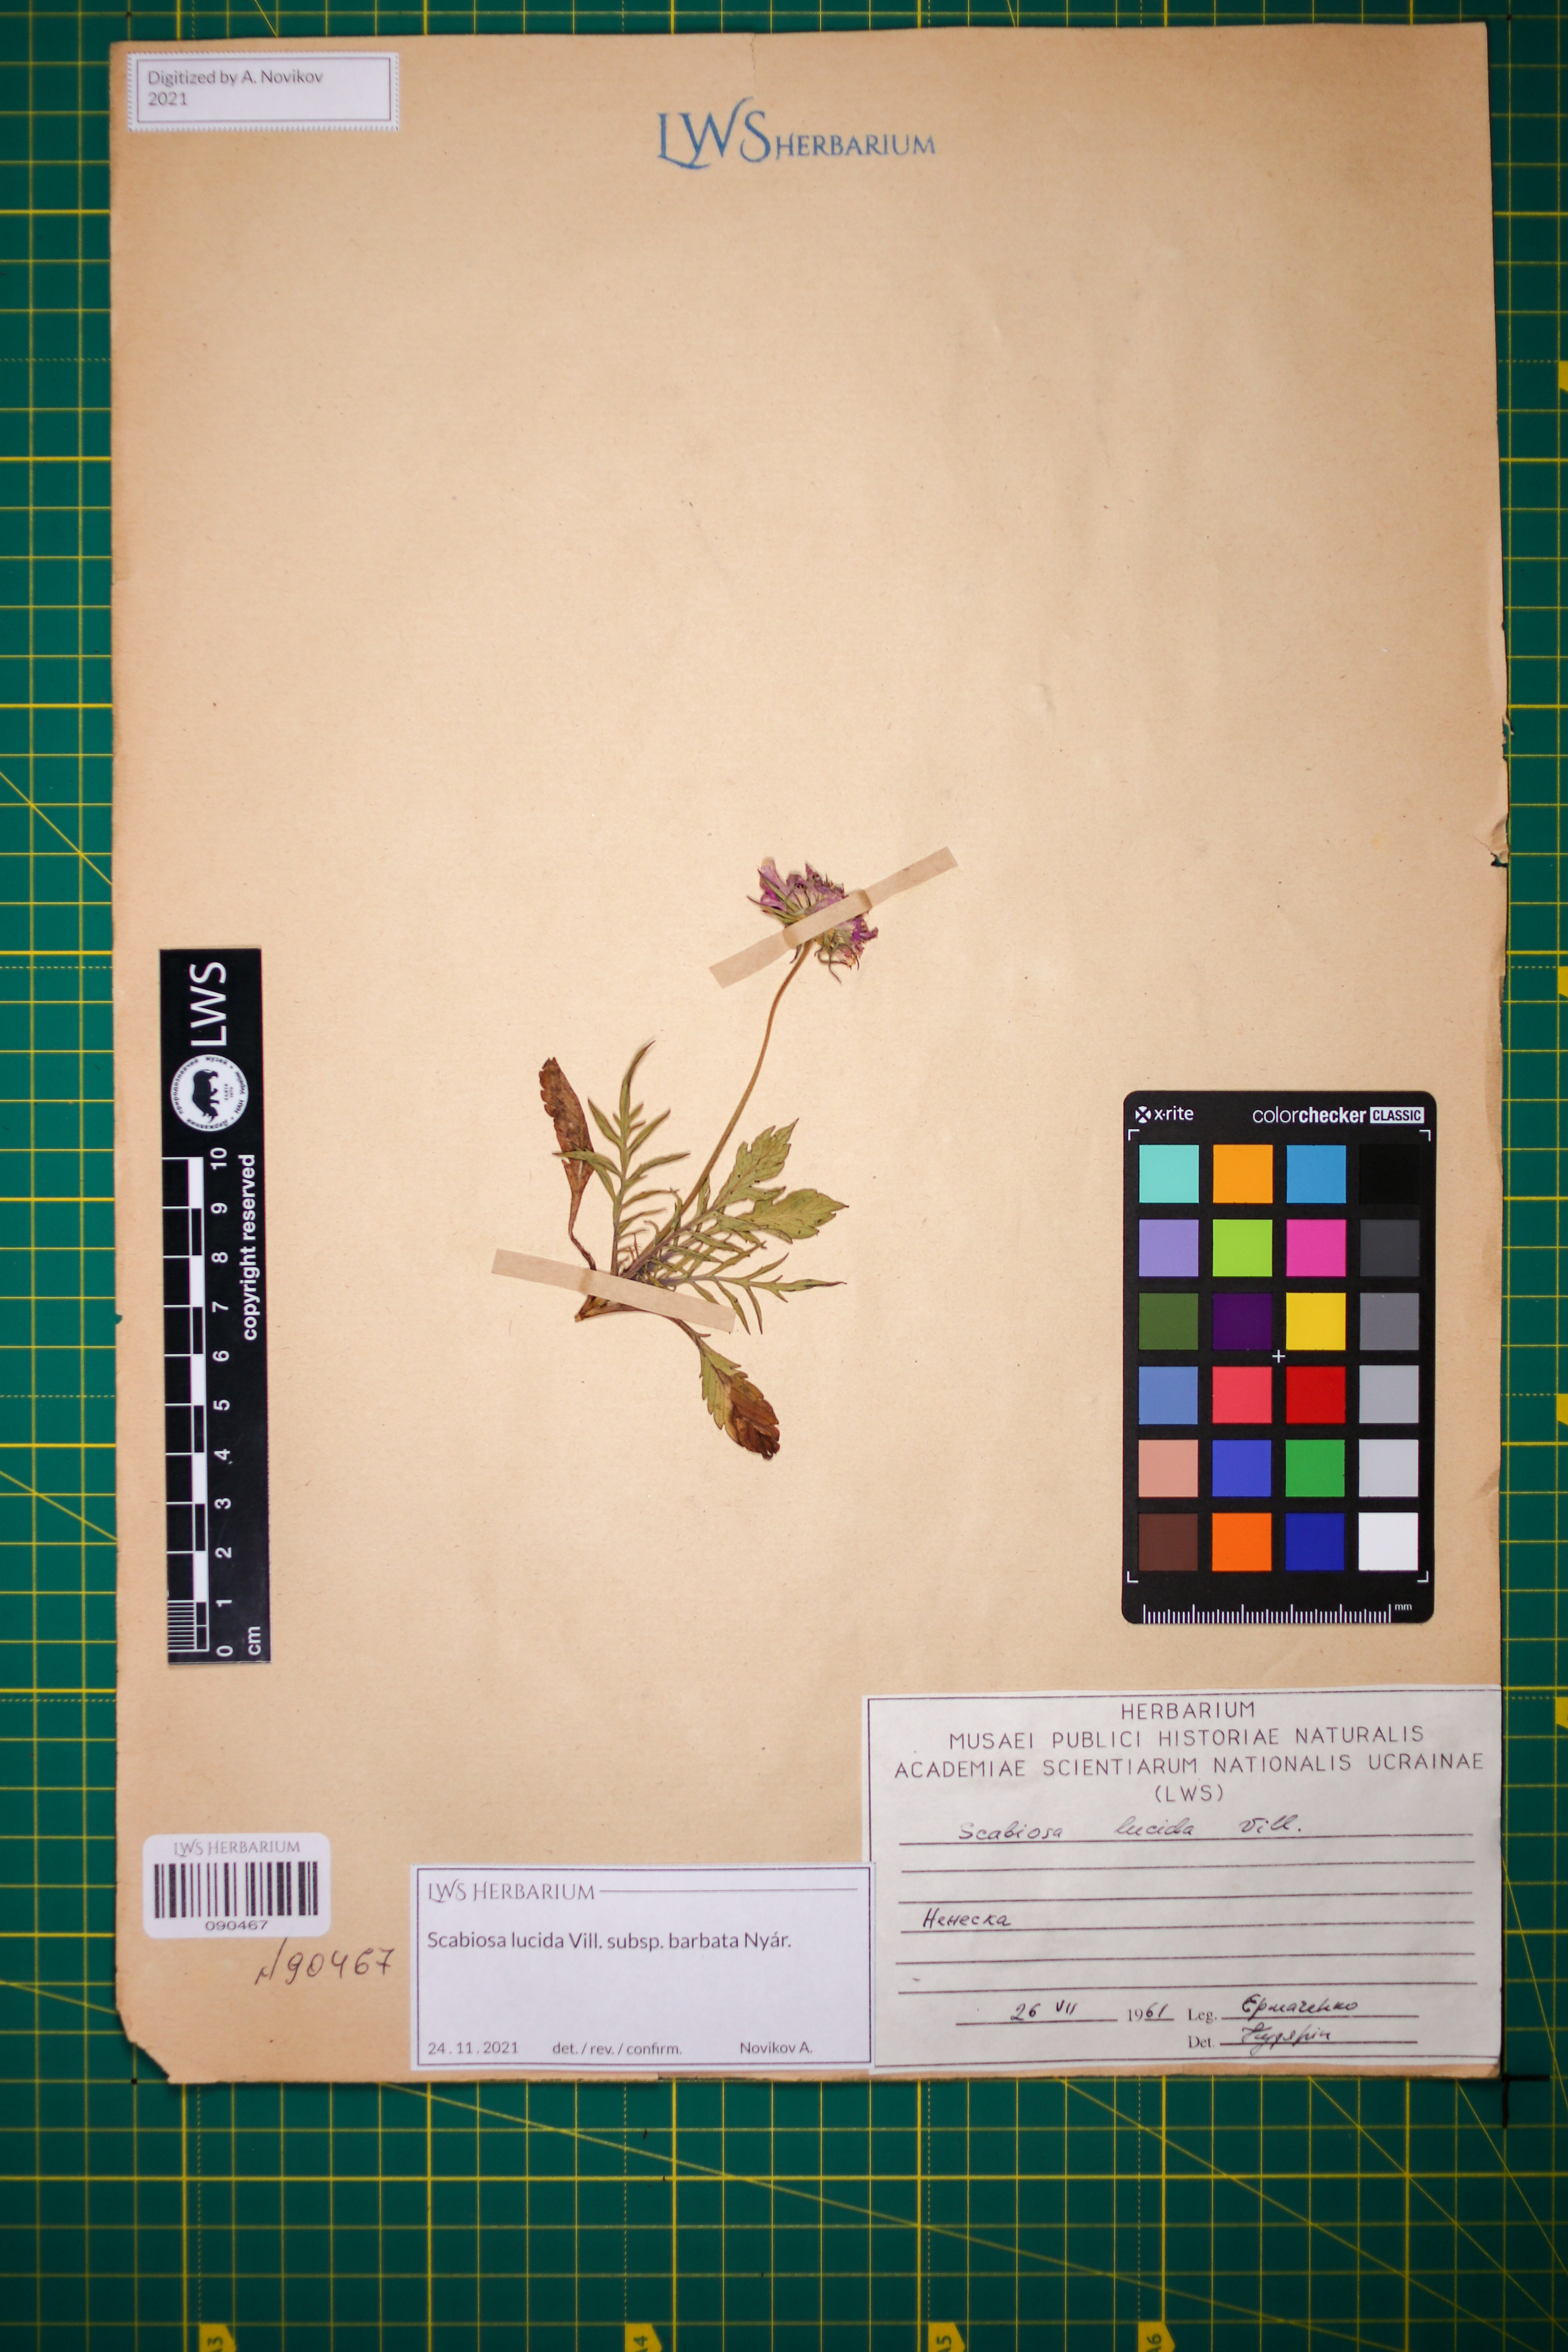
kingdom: Plantae
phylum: Tracheophyta
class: Magnoliopsida
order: Dipsacales
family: Caprifoliaceae
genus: Scabiosa
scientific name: Scabiosa lucida
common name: Shining scabious
